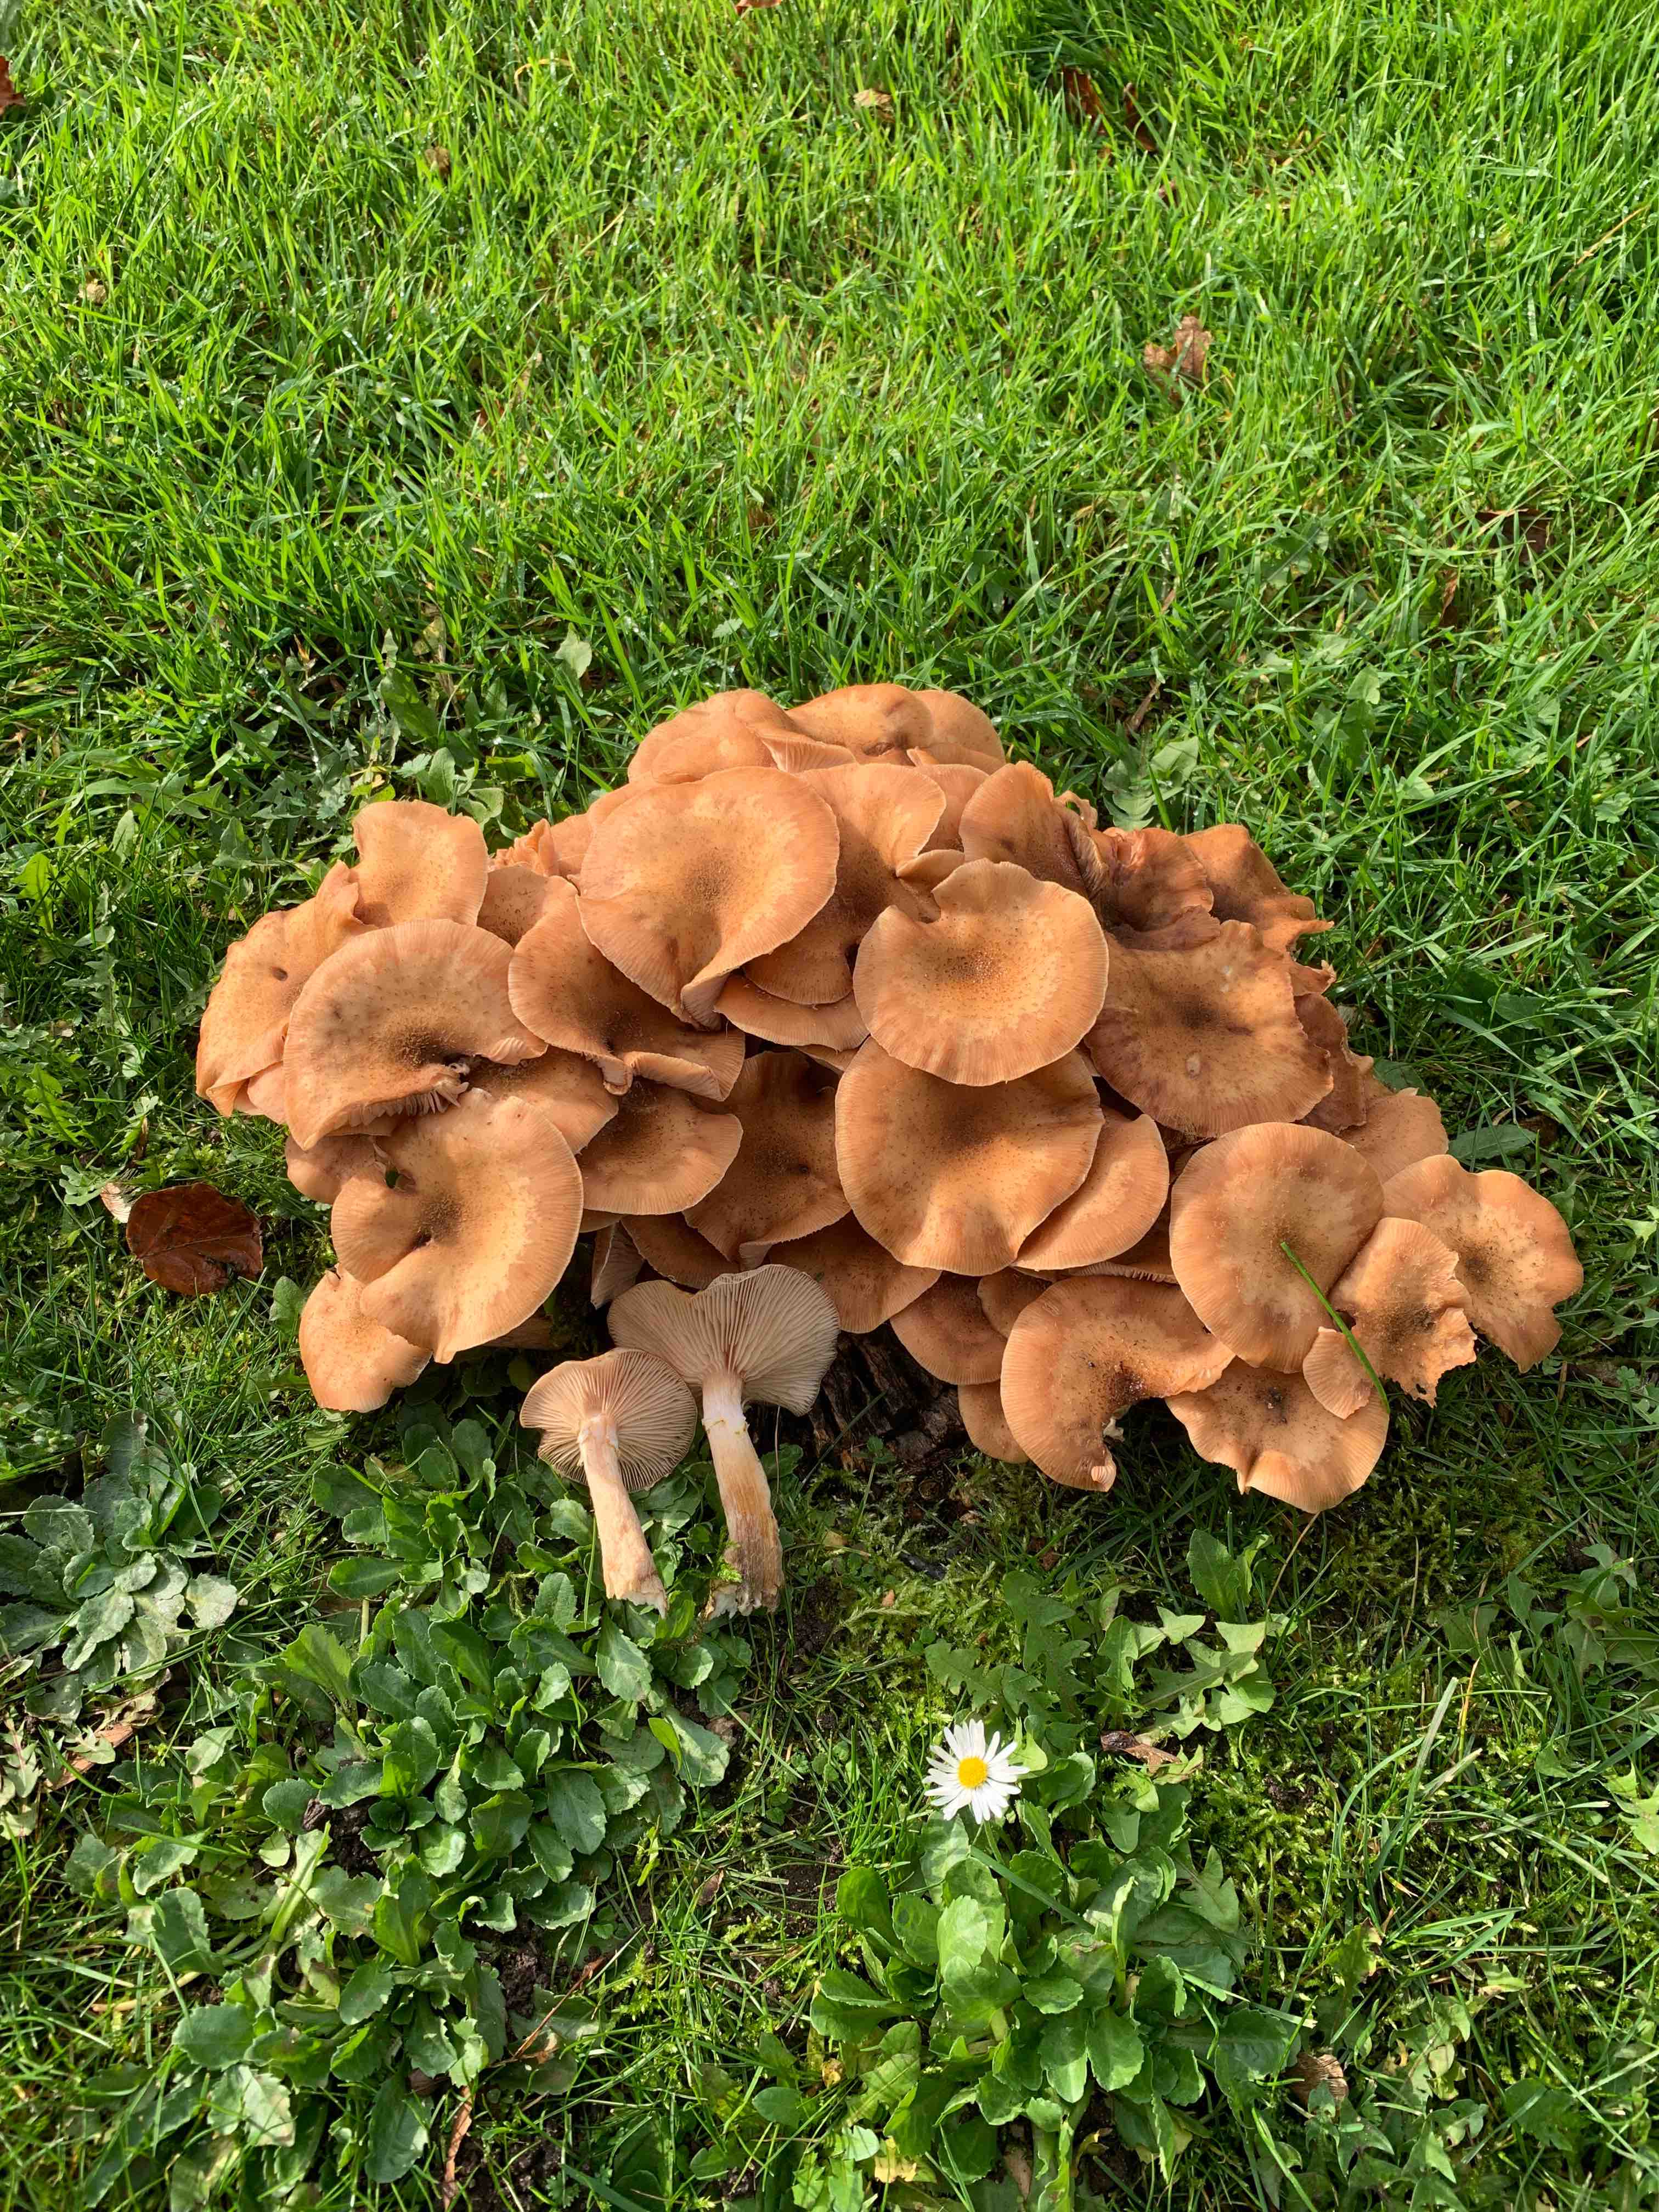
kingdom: Fungi
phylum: Basidiomycota
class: Agaricomycetes
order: Agaricales
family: Physalacriaceae
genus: Armillaria
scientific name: Armillaria mellea
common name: ægte honningsvamp
